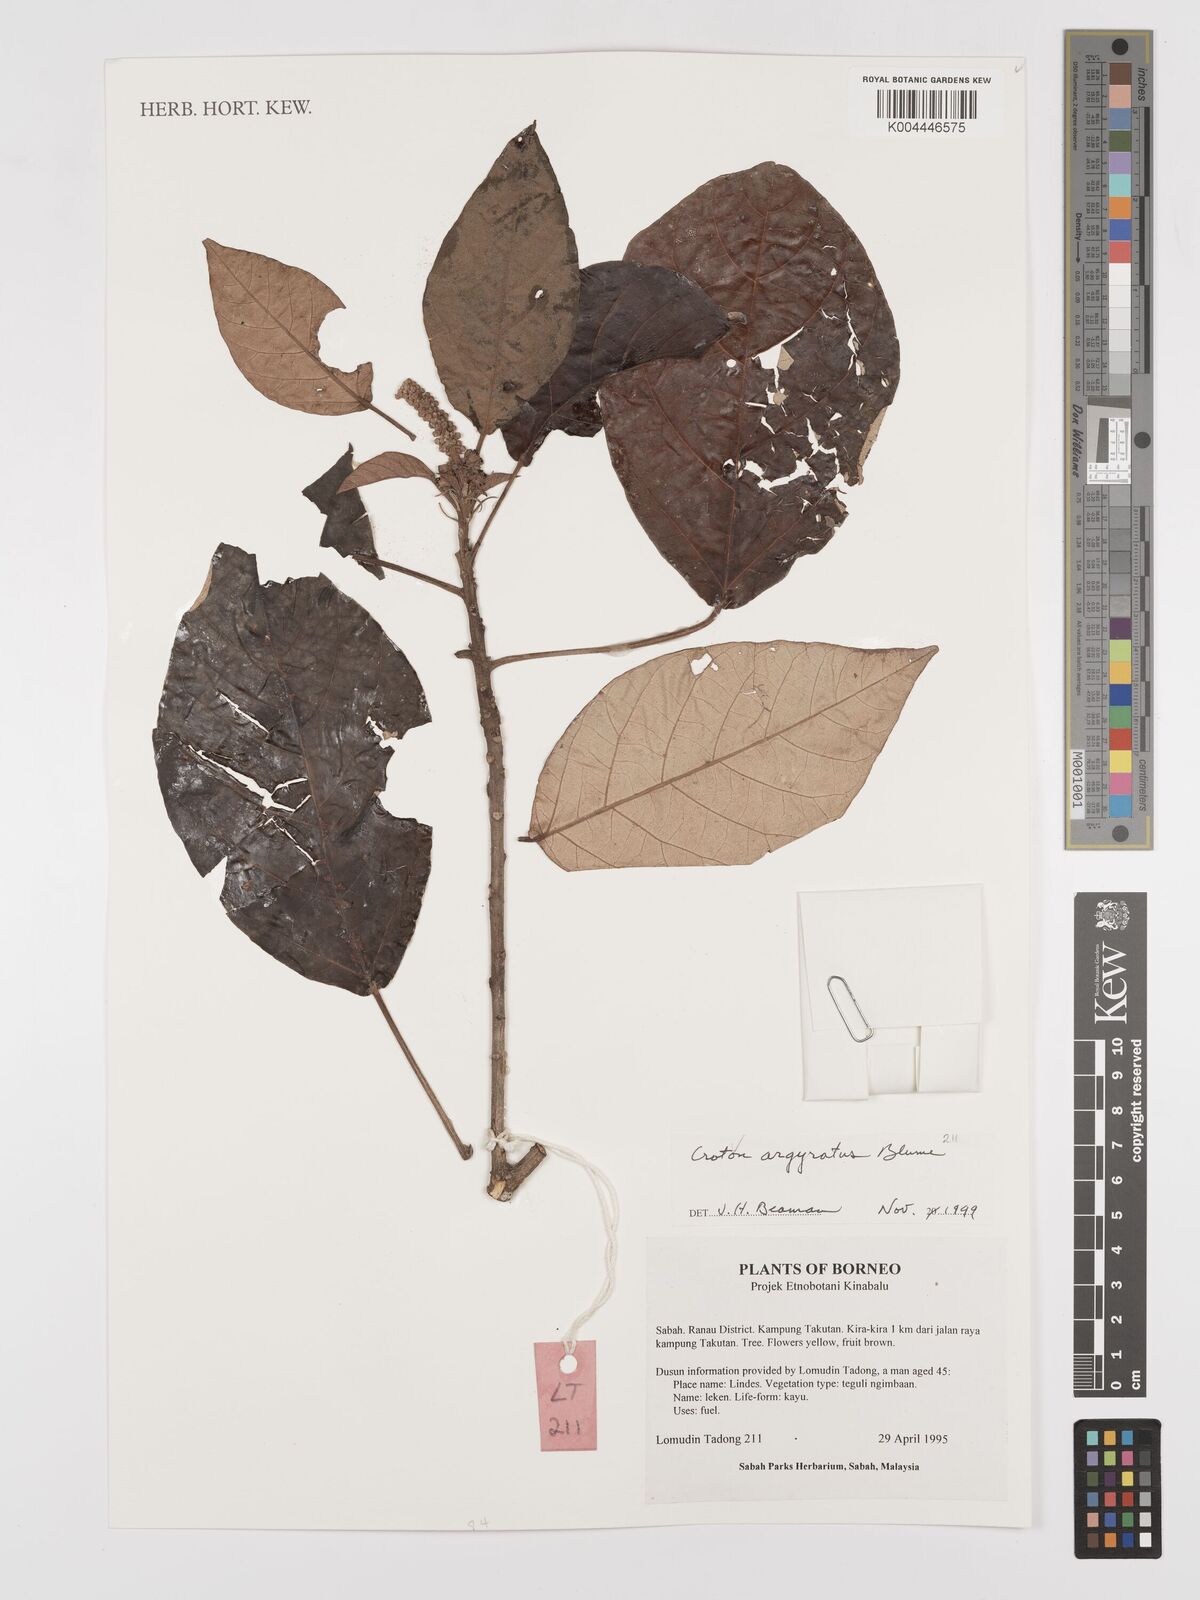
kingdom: Plantae
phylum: Tracheophyta
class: Magnoliopsida
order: Malpighiales
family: Euphorbiaceae
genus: Croton
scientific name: Croton argyratus
